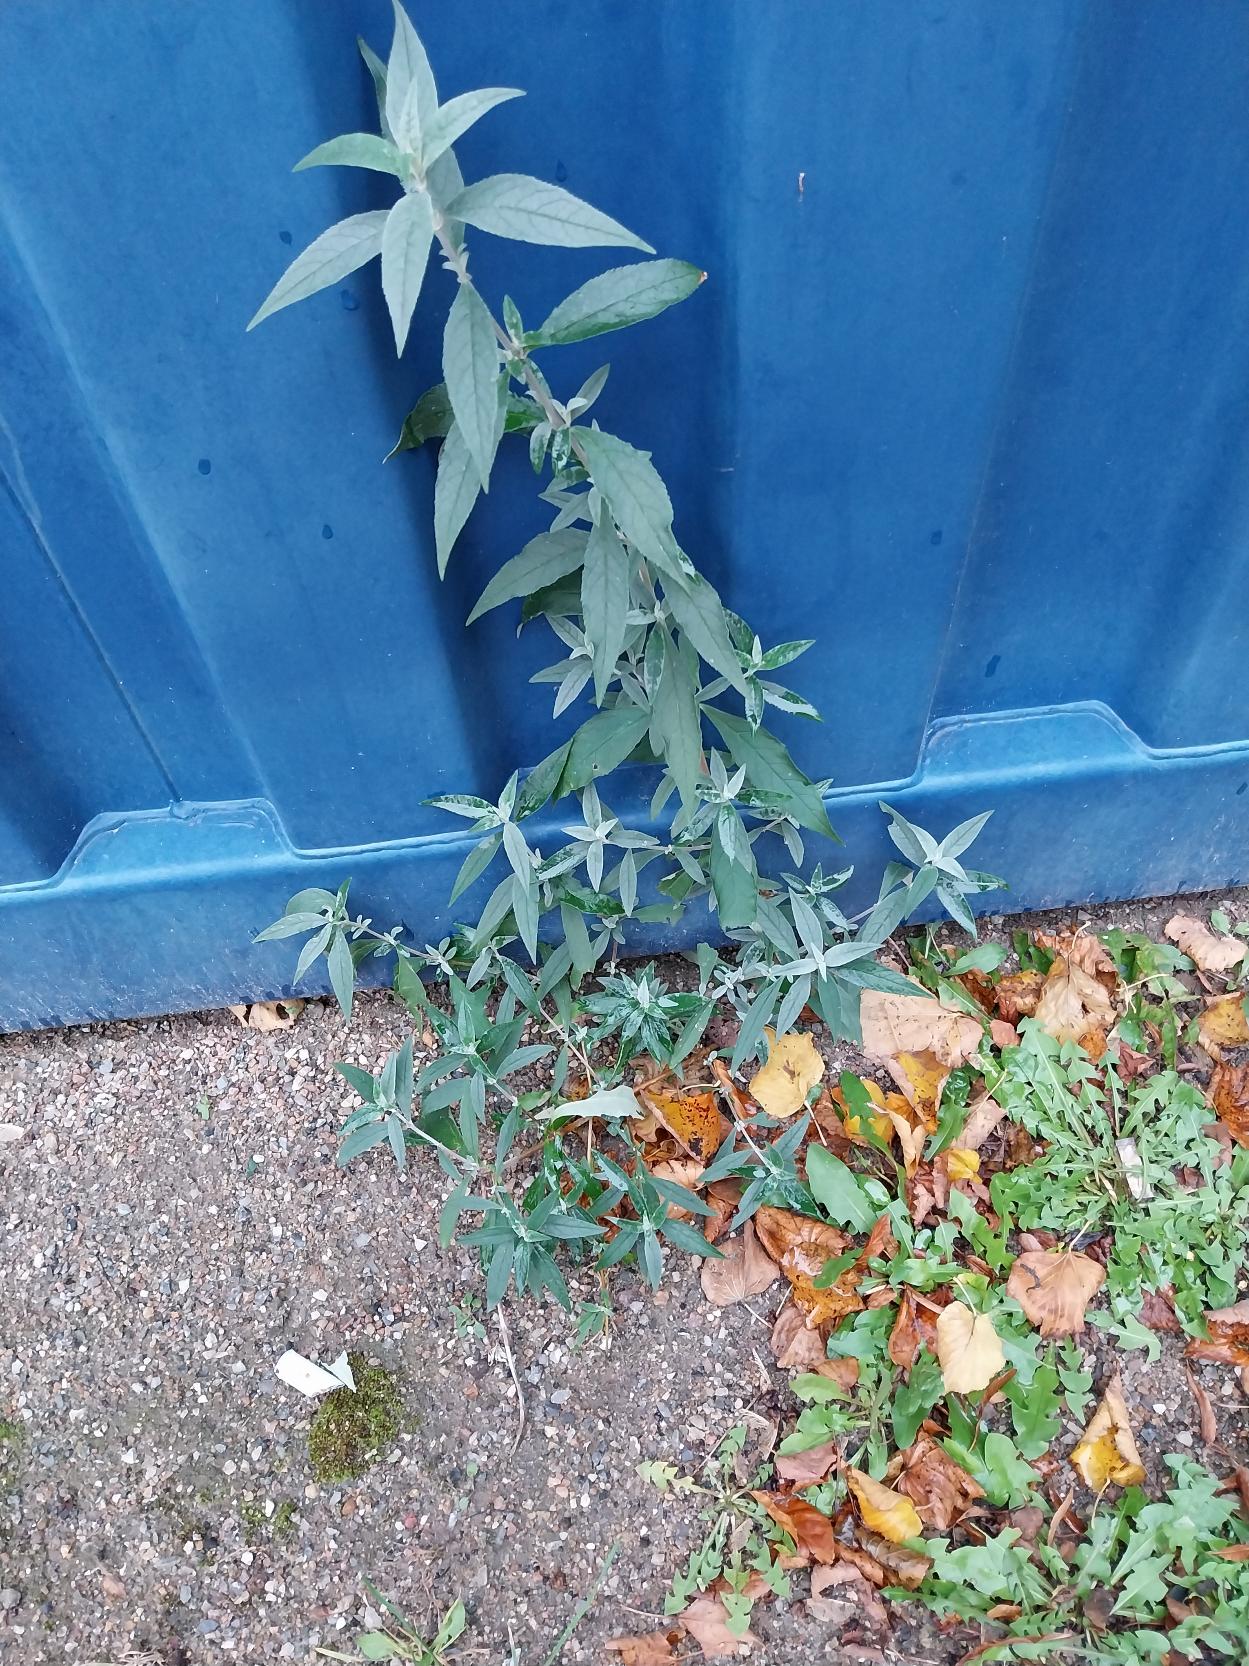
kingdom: Plantae
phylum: Tracheophyta
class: Magnoliopsida
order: Lamiales
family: Scrophulariaceae
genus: Buddleja
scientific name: Buddleja davidii
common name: Sommerfuglebusk
